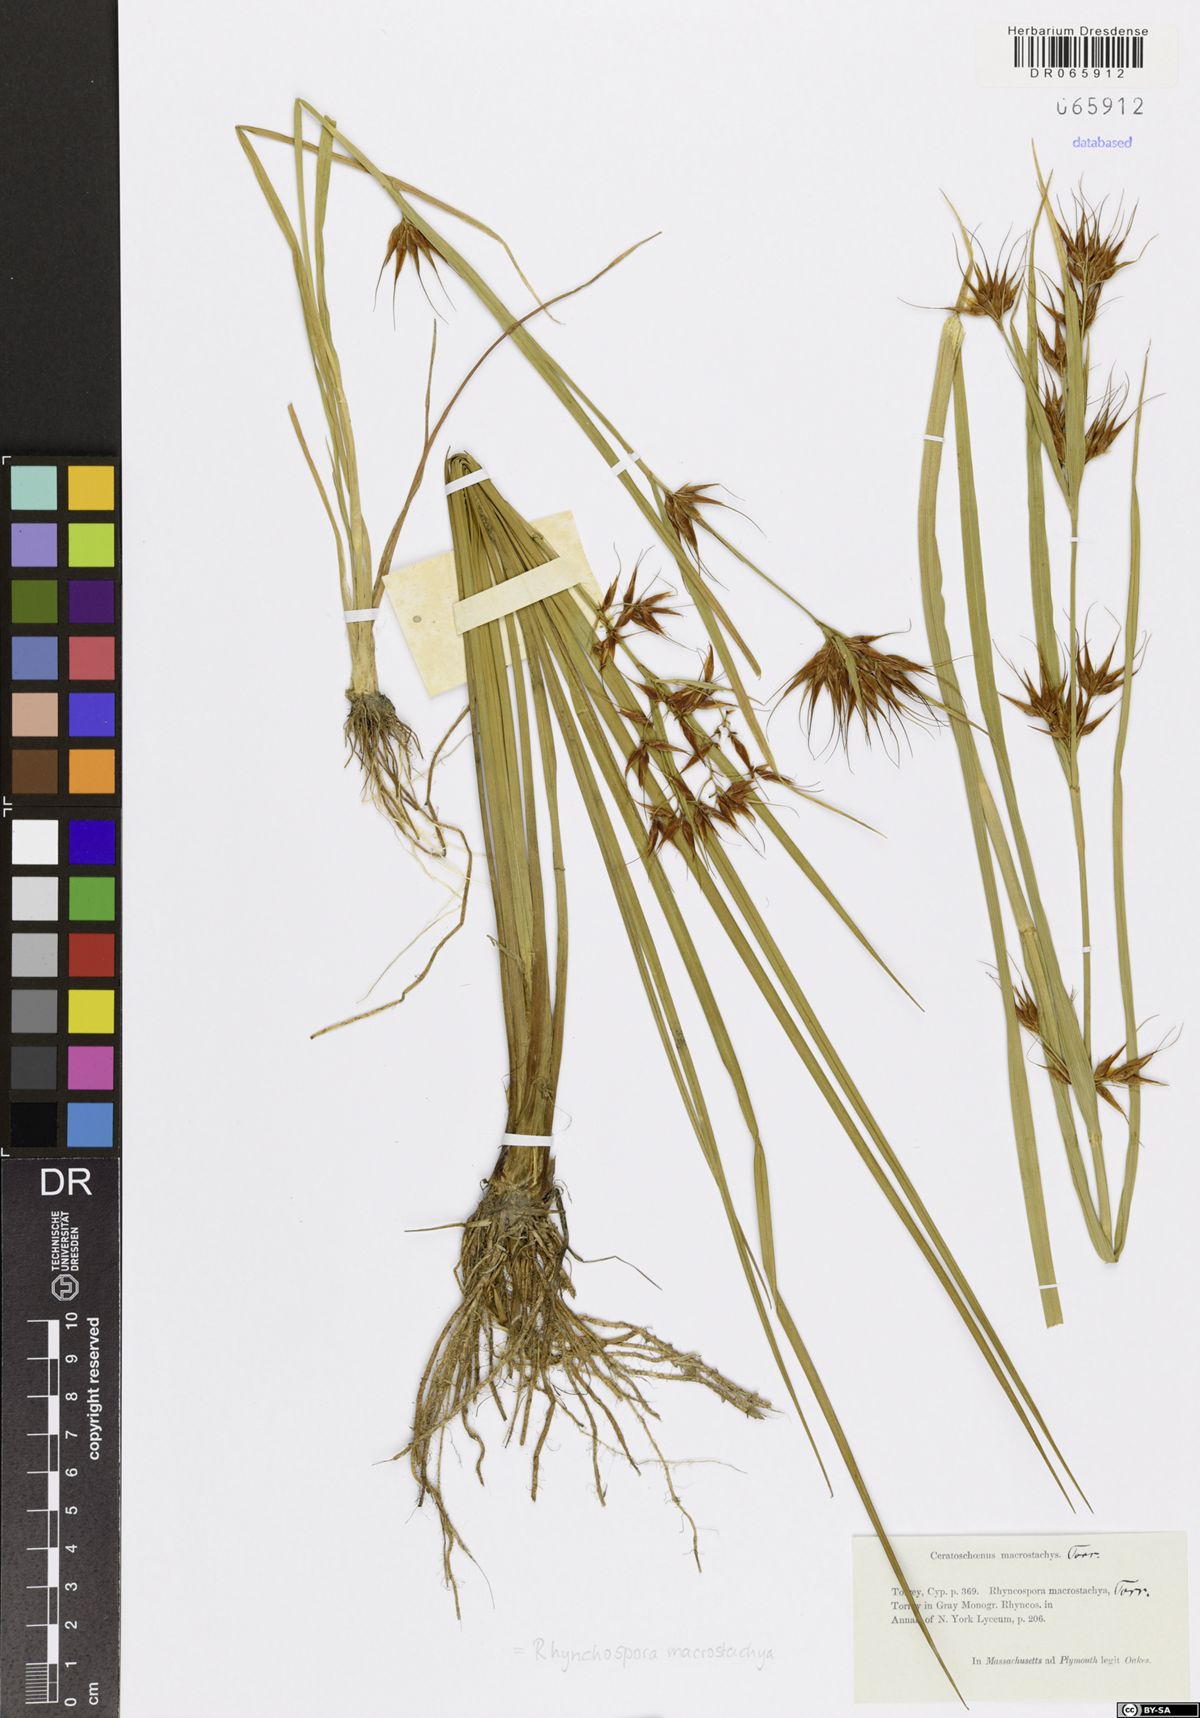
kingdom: Plantae
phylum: Tracheophyta
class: Liliopsida
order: Poales
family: Cyperaceae
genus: Rhynchospora
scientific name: Rhynchospora macrostachya
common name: Tall beakrush
